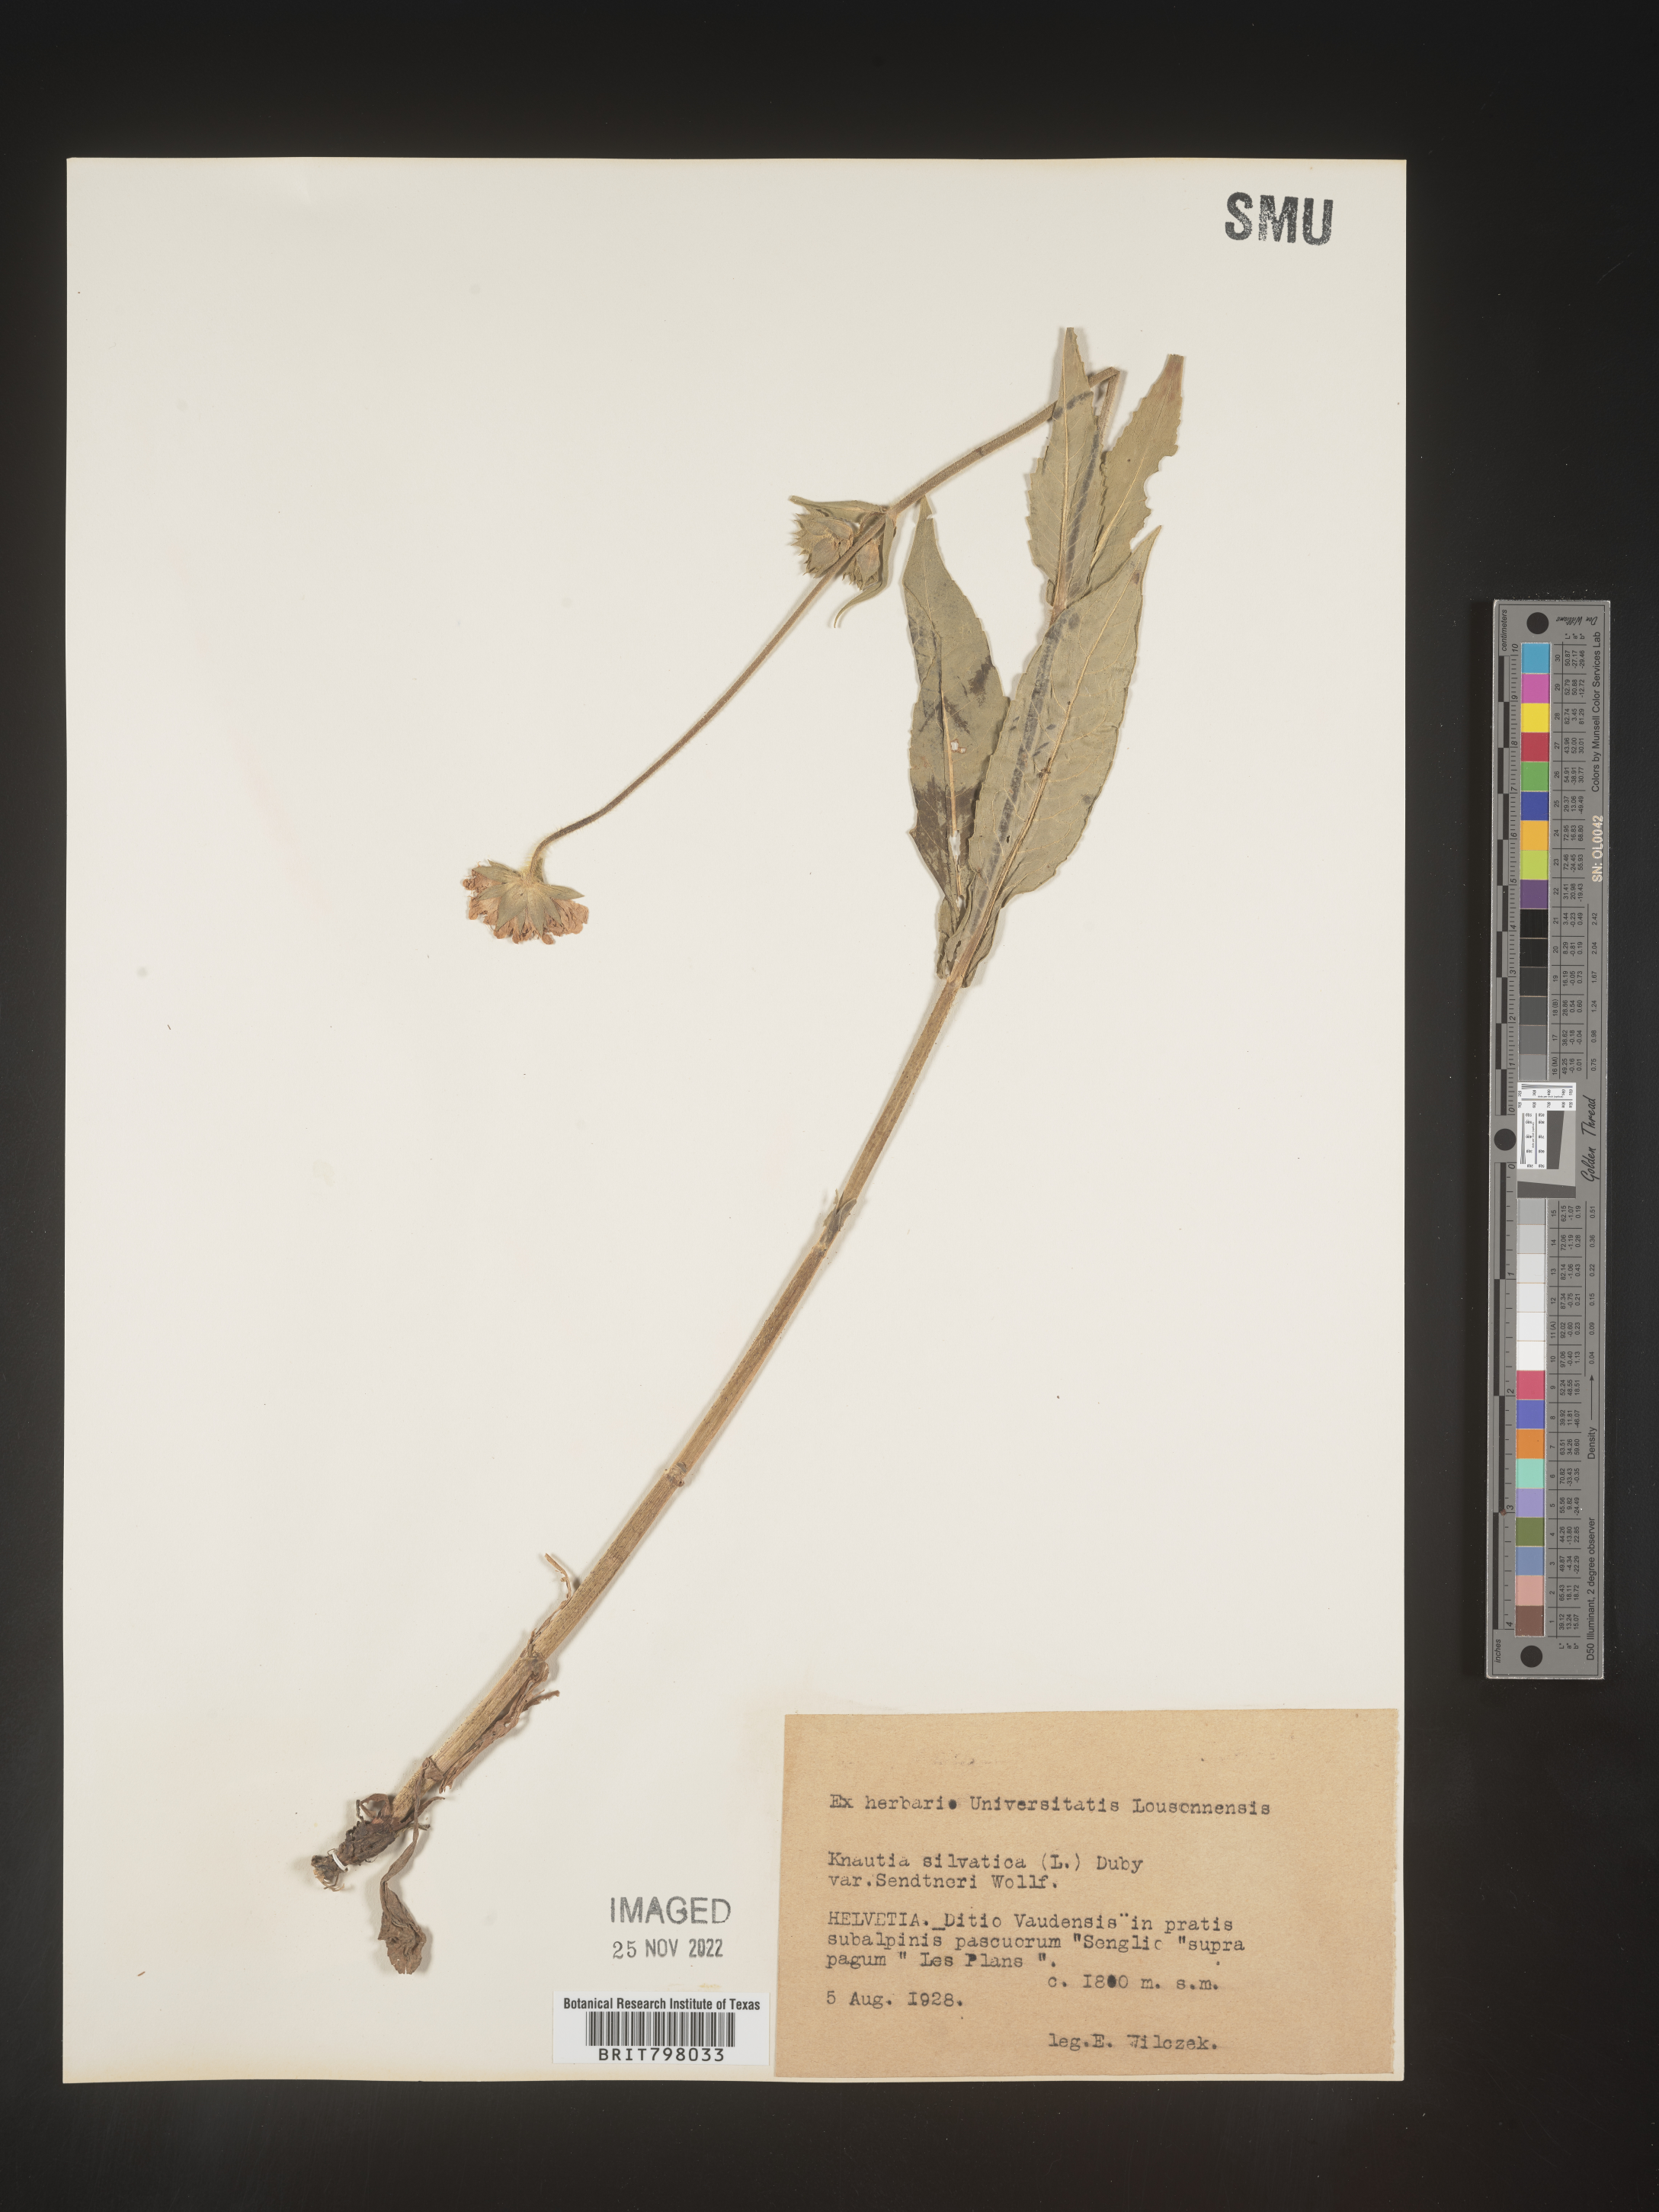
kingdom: Plantae
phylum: Tracheophyta
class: Magnoliopsida
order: Dipsacales
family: Caprifoliaceae
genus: Knautia
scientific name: Knautia
